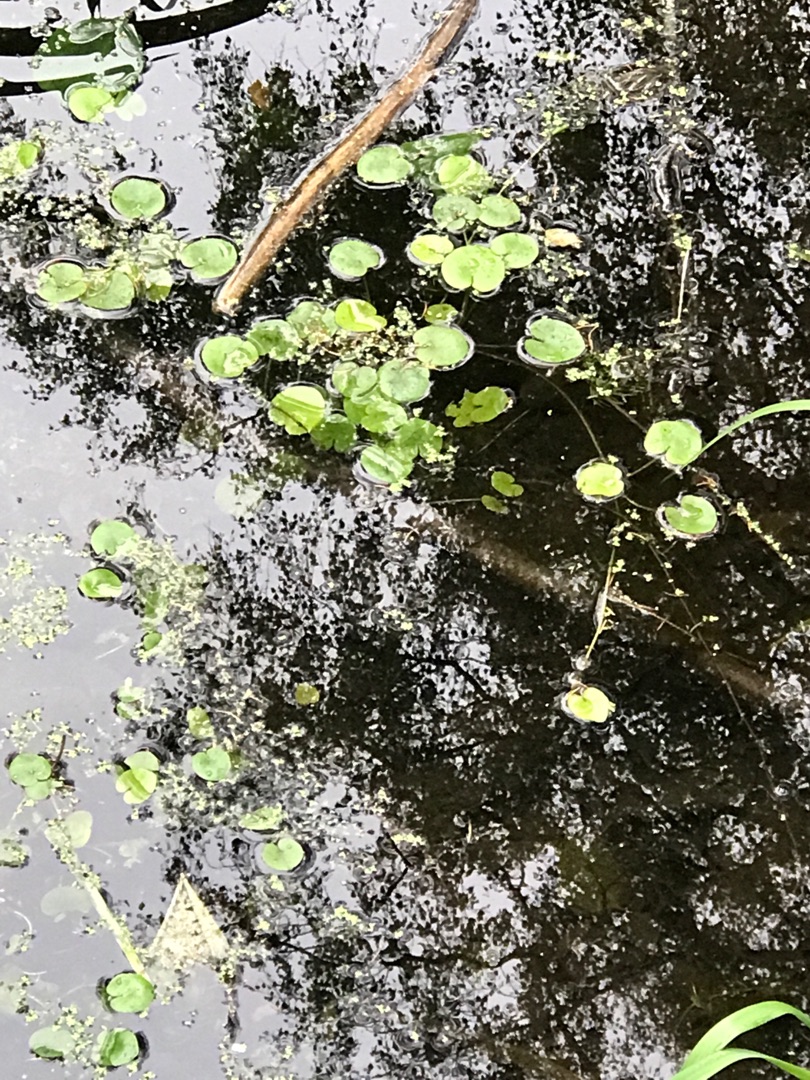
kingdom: Plantae
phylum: Tracheophyta
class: Liliopsida
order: Alismatales
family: Hydrocharitaceae
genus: Hydrocharis
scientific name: Hydrocharis morsus-ranae
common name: Frøbid
